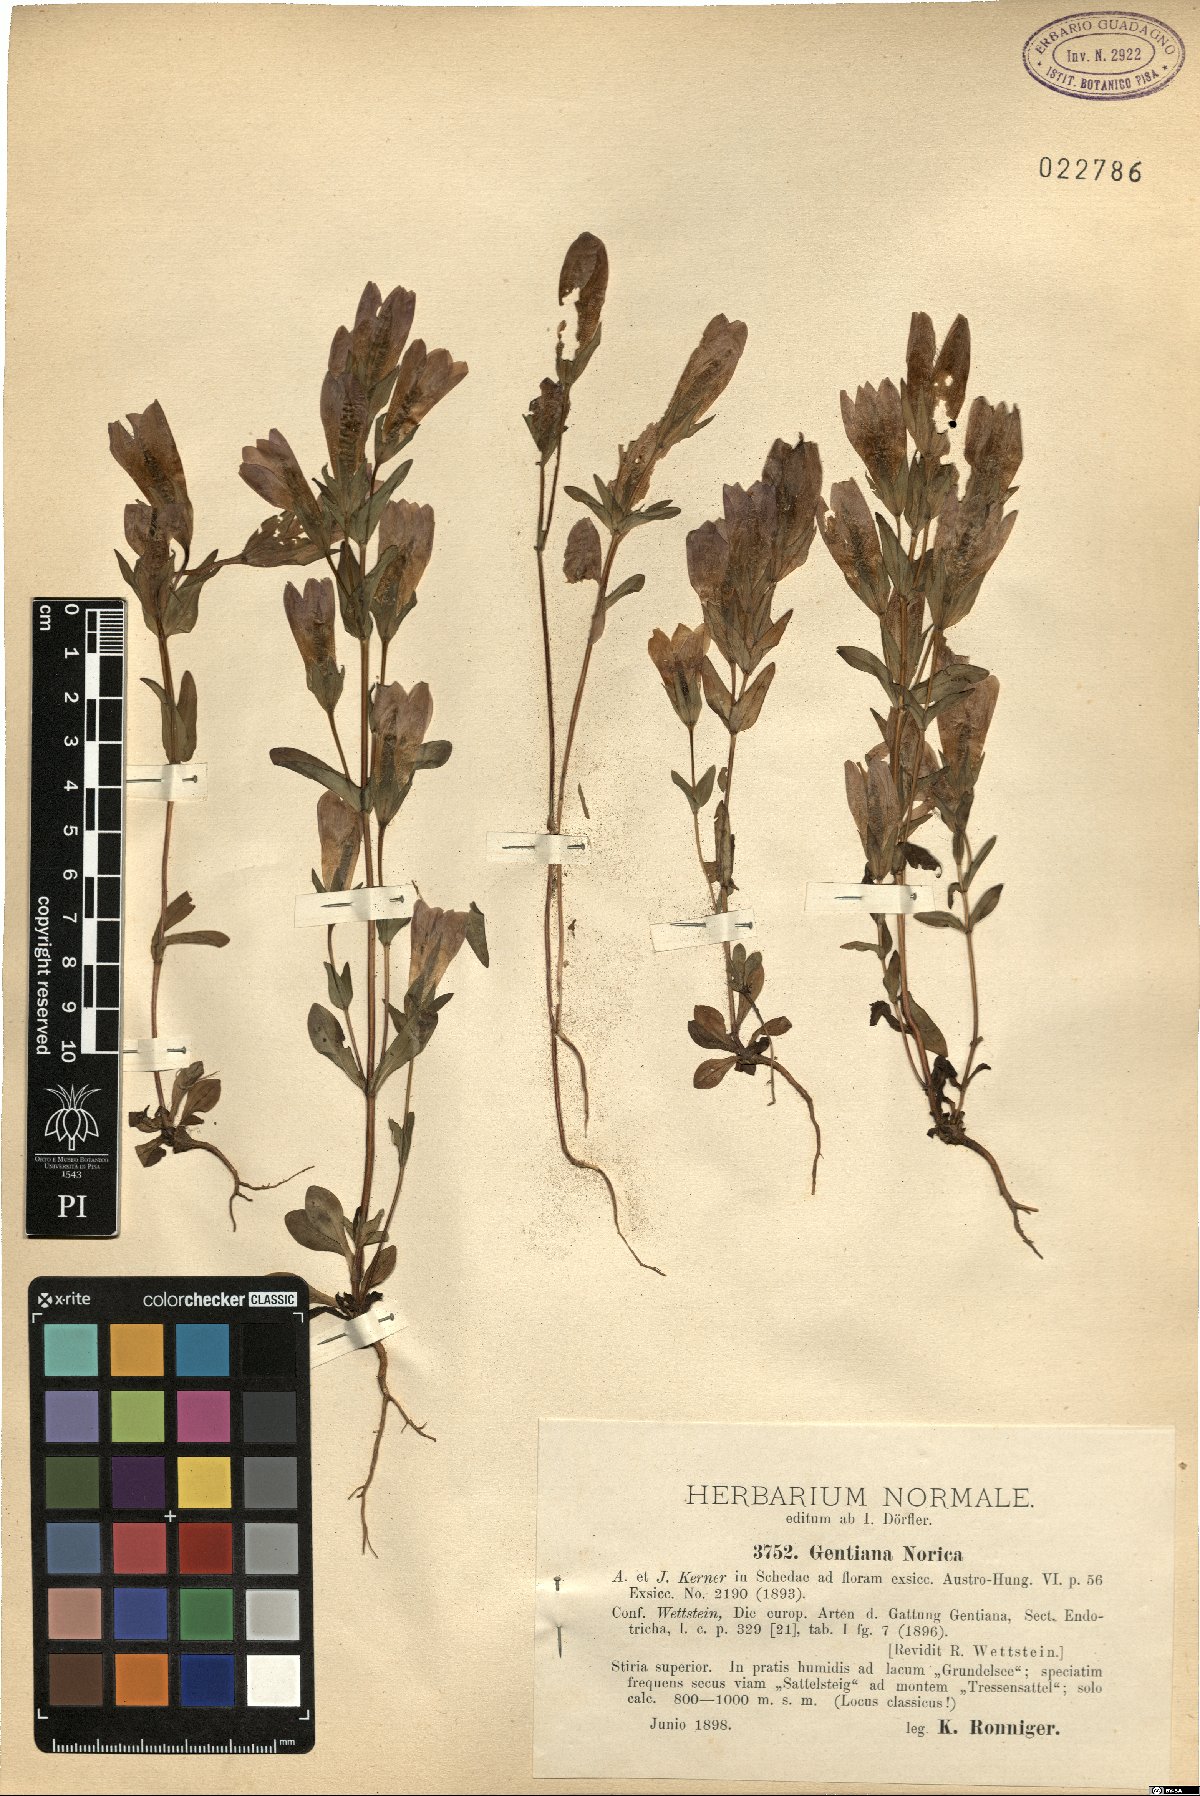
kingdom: Plantae
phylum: Tracheophyta
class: Magnoliopsida
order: Gentianales
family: Gentianaceae
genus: Gentianella
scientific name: Gentianella obtusifolia
